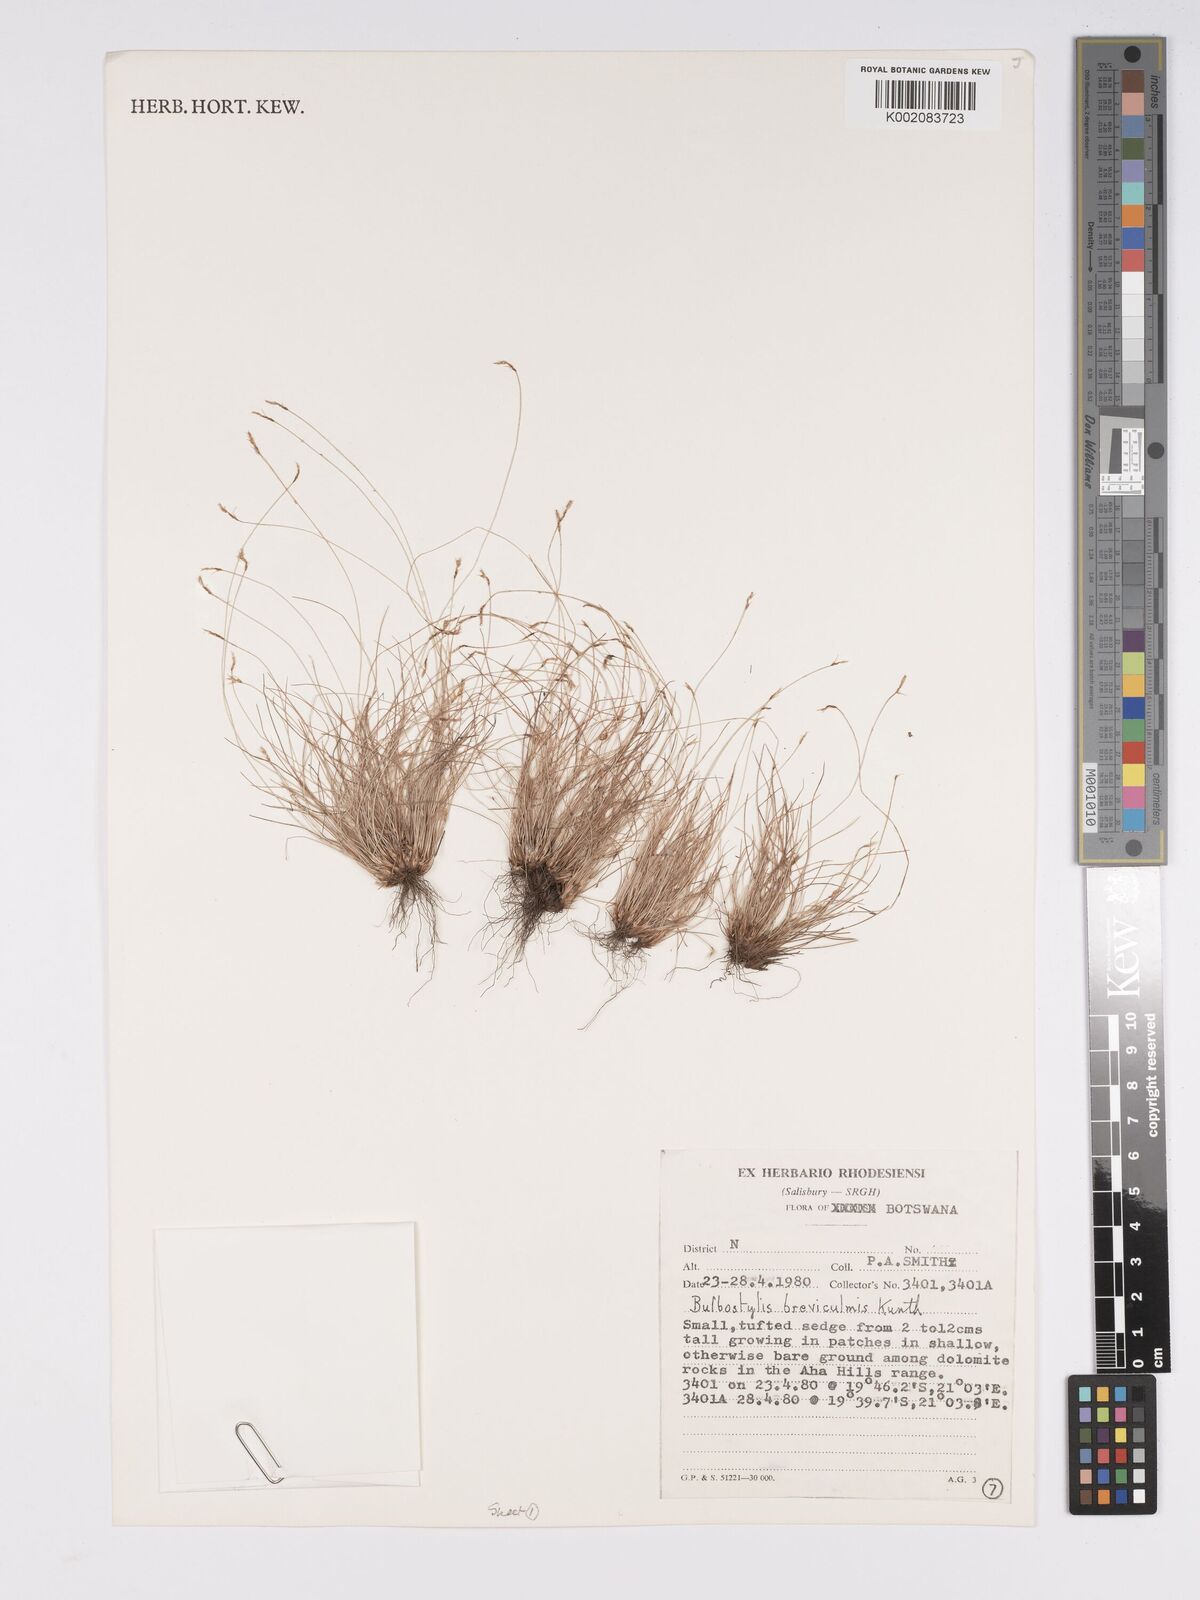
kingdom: Plantae
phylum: Tracheophyta
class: Liliopsida
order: Poales
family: Cyperaceae
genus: Bulbostylis
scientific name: Bulbostylis humilis
